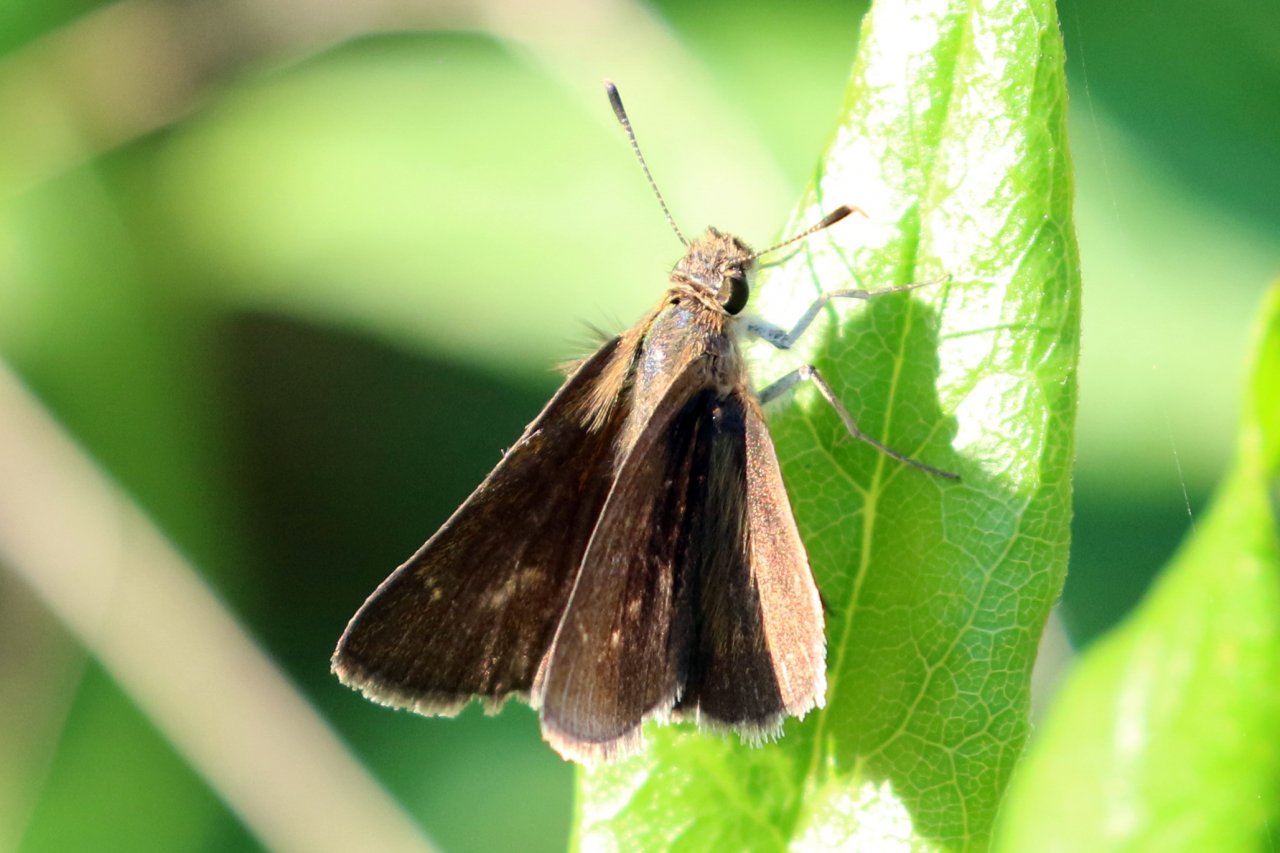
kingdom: Animalia
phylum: Arthropoda
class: Insecta
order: Lepidoptera
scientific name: Lepidoptera
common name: Butterflies
